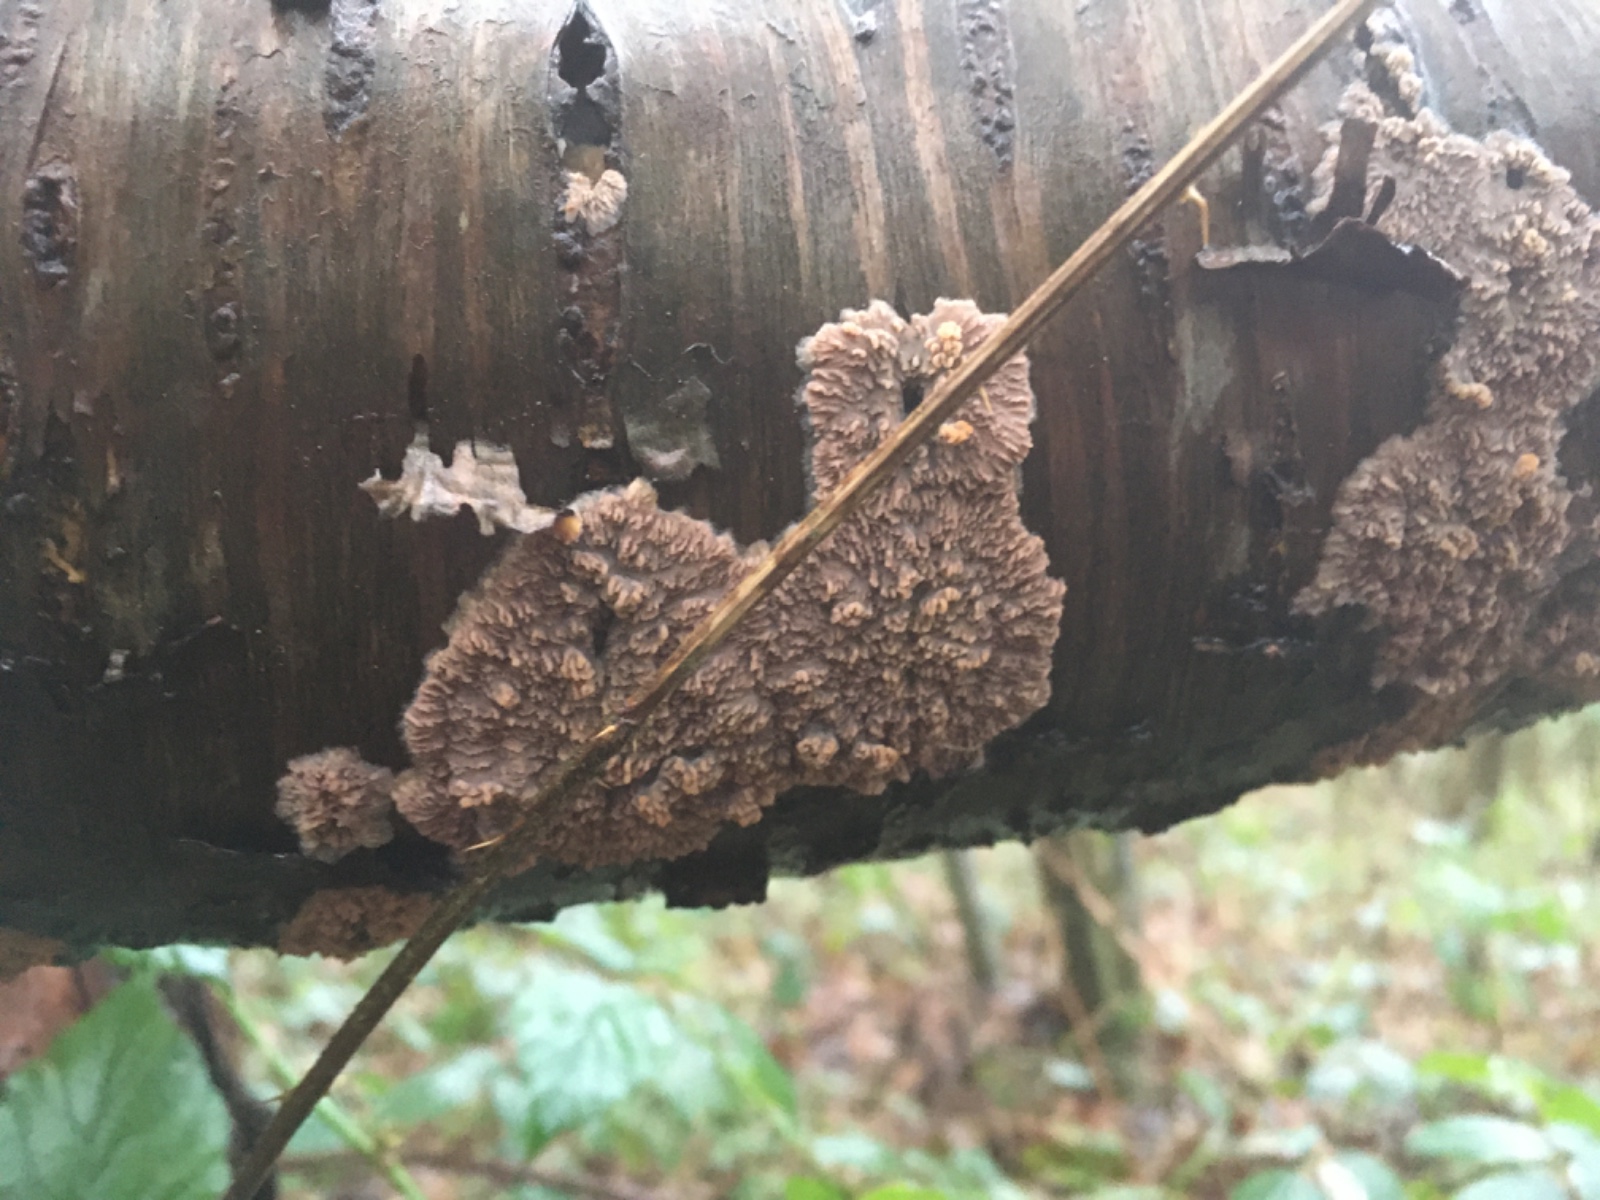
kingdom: Fungi
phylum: Basidiomycota
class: Agaricomycetes
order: Polyporales
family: Meruliaceae
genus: Phlebia
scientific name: Phlebia radiata
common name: stråle-åresvamp
